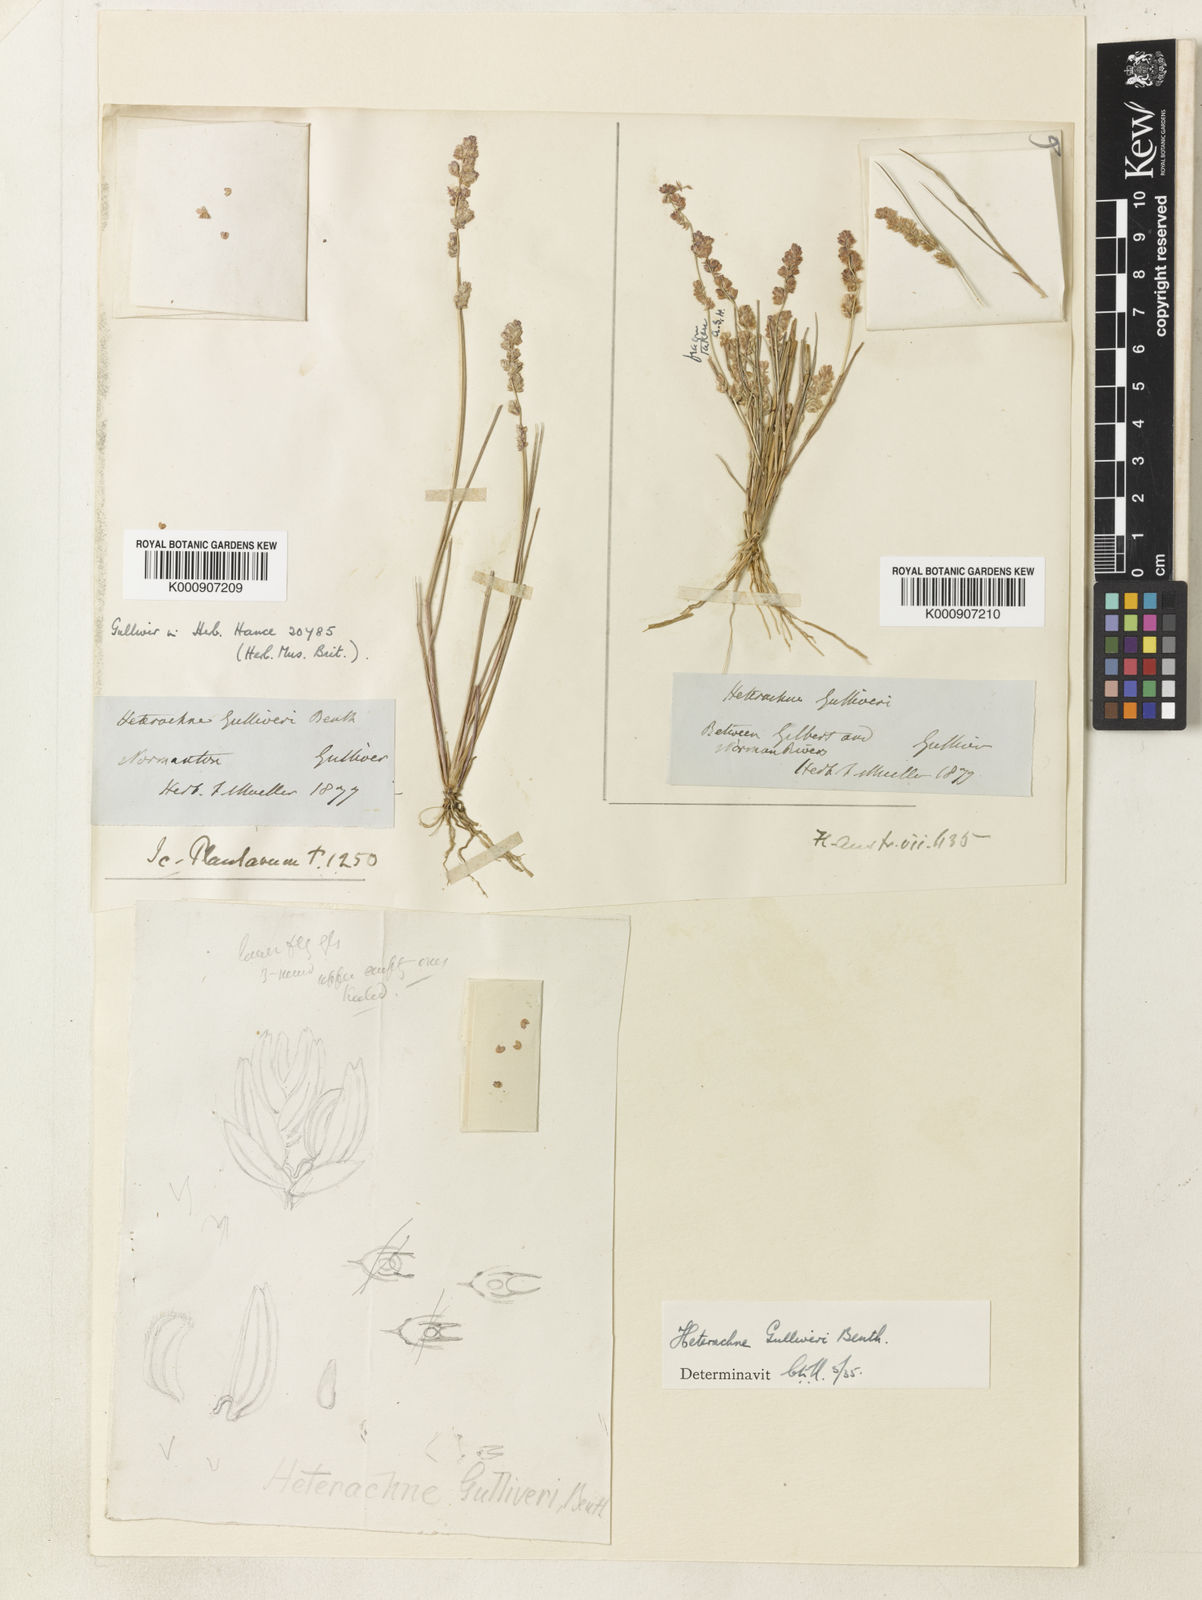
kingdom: Plantae
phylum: Tracheophyta
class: Liliopsida
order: Poales
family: Poaceae
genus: Eragrostis
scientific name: Eragrostis lilliputiana
